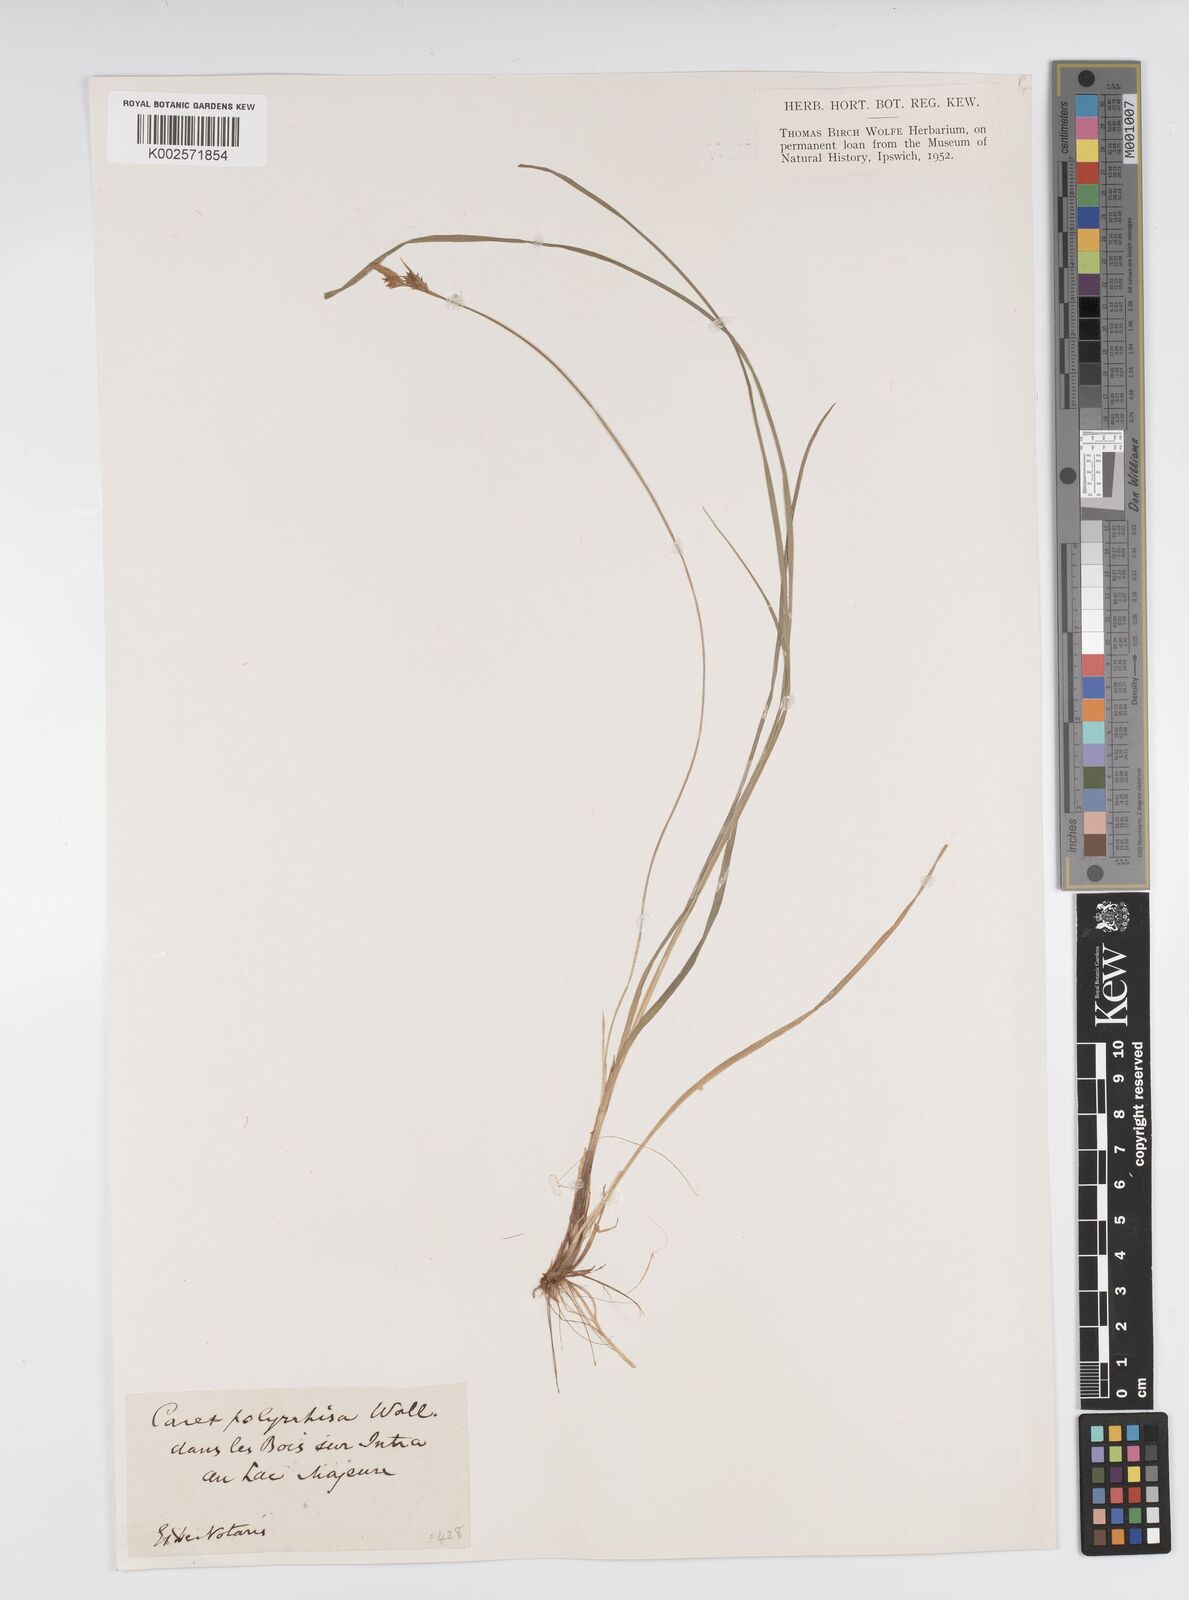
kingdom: Plantae
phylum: Tracheophyta
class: Liliopsida
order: Poales
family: Cyperaceae
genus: Carex
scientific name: Carex umbrosa
